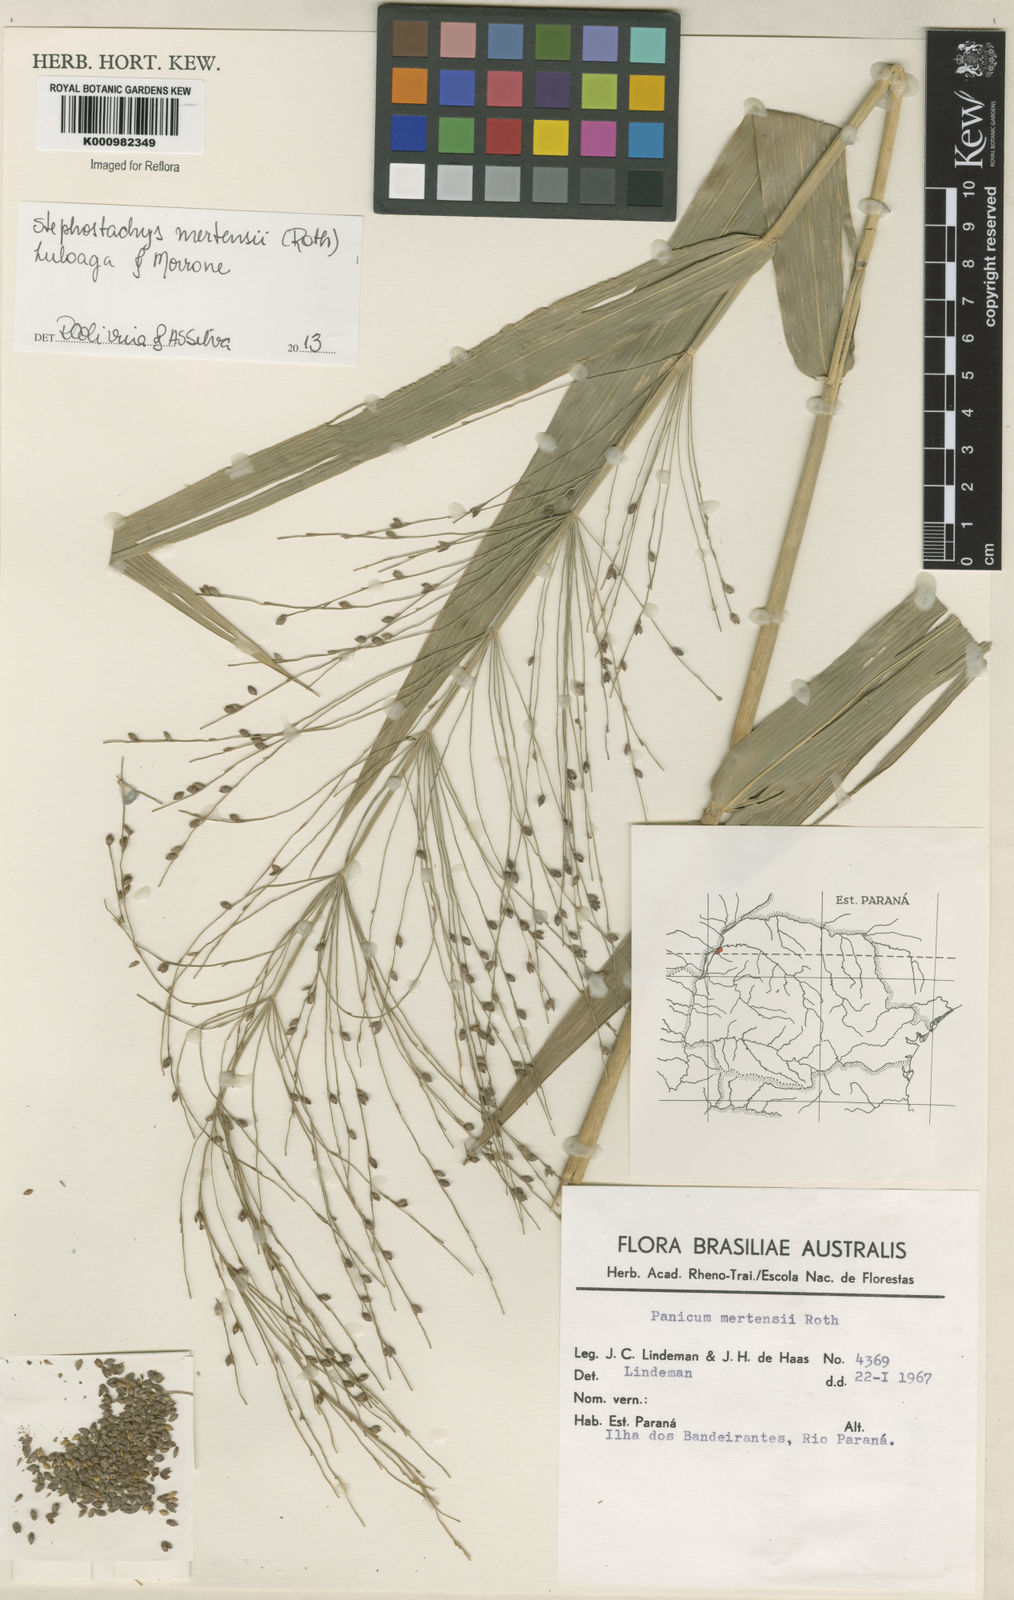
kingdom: Plantae
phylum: Tracheophyta
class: Liliopsida
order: Poales
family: Poaceae
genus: Stephostachys
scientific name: Stephostachys mertensii
